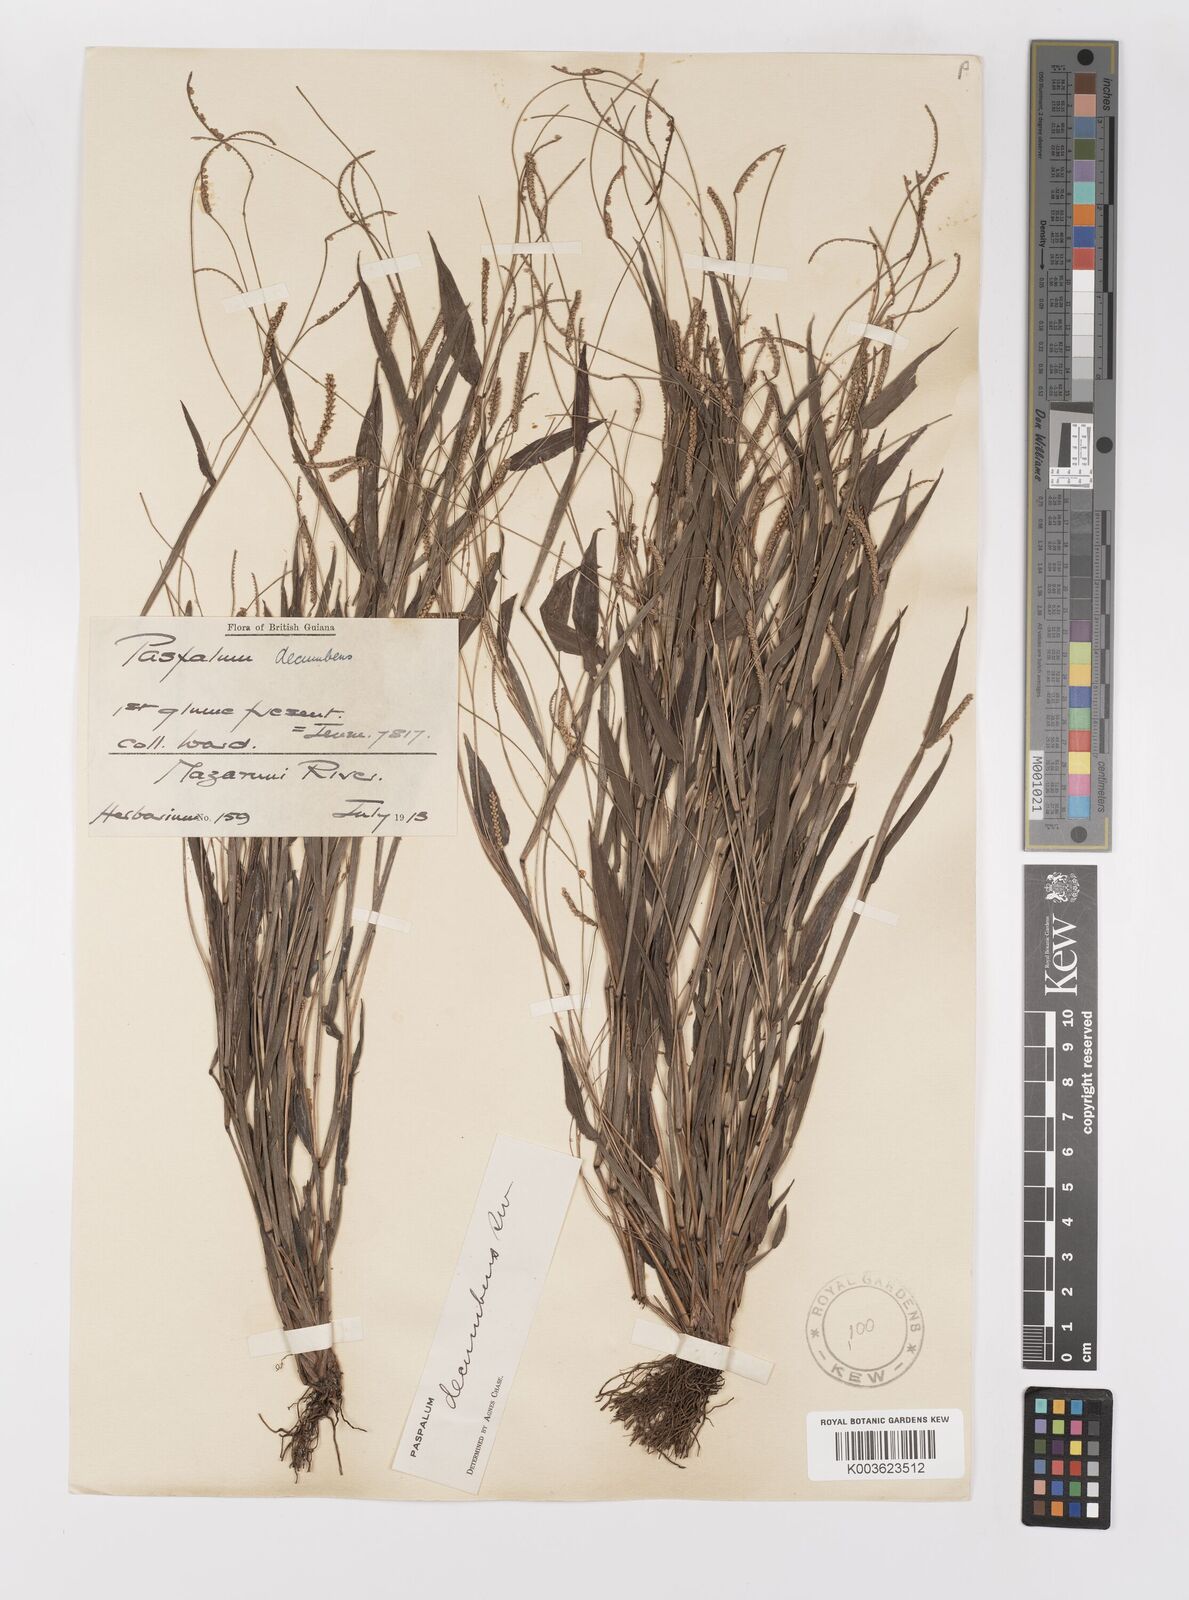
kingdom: Plantae
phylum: Tracheophyta
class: Liliopsida
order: Poales
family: Poaceae
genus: Paspalum
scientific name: Paspalum decumbens
